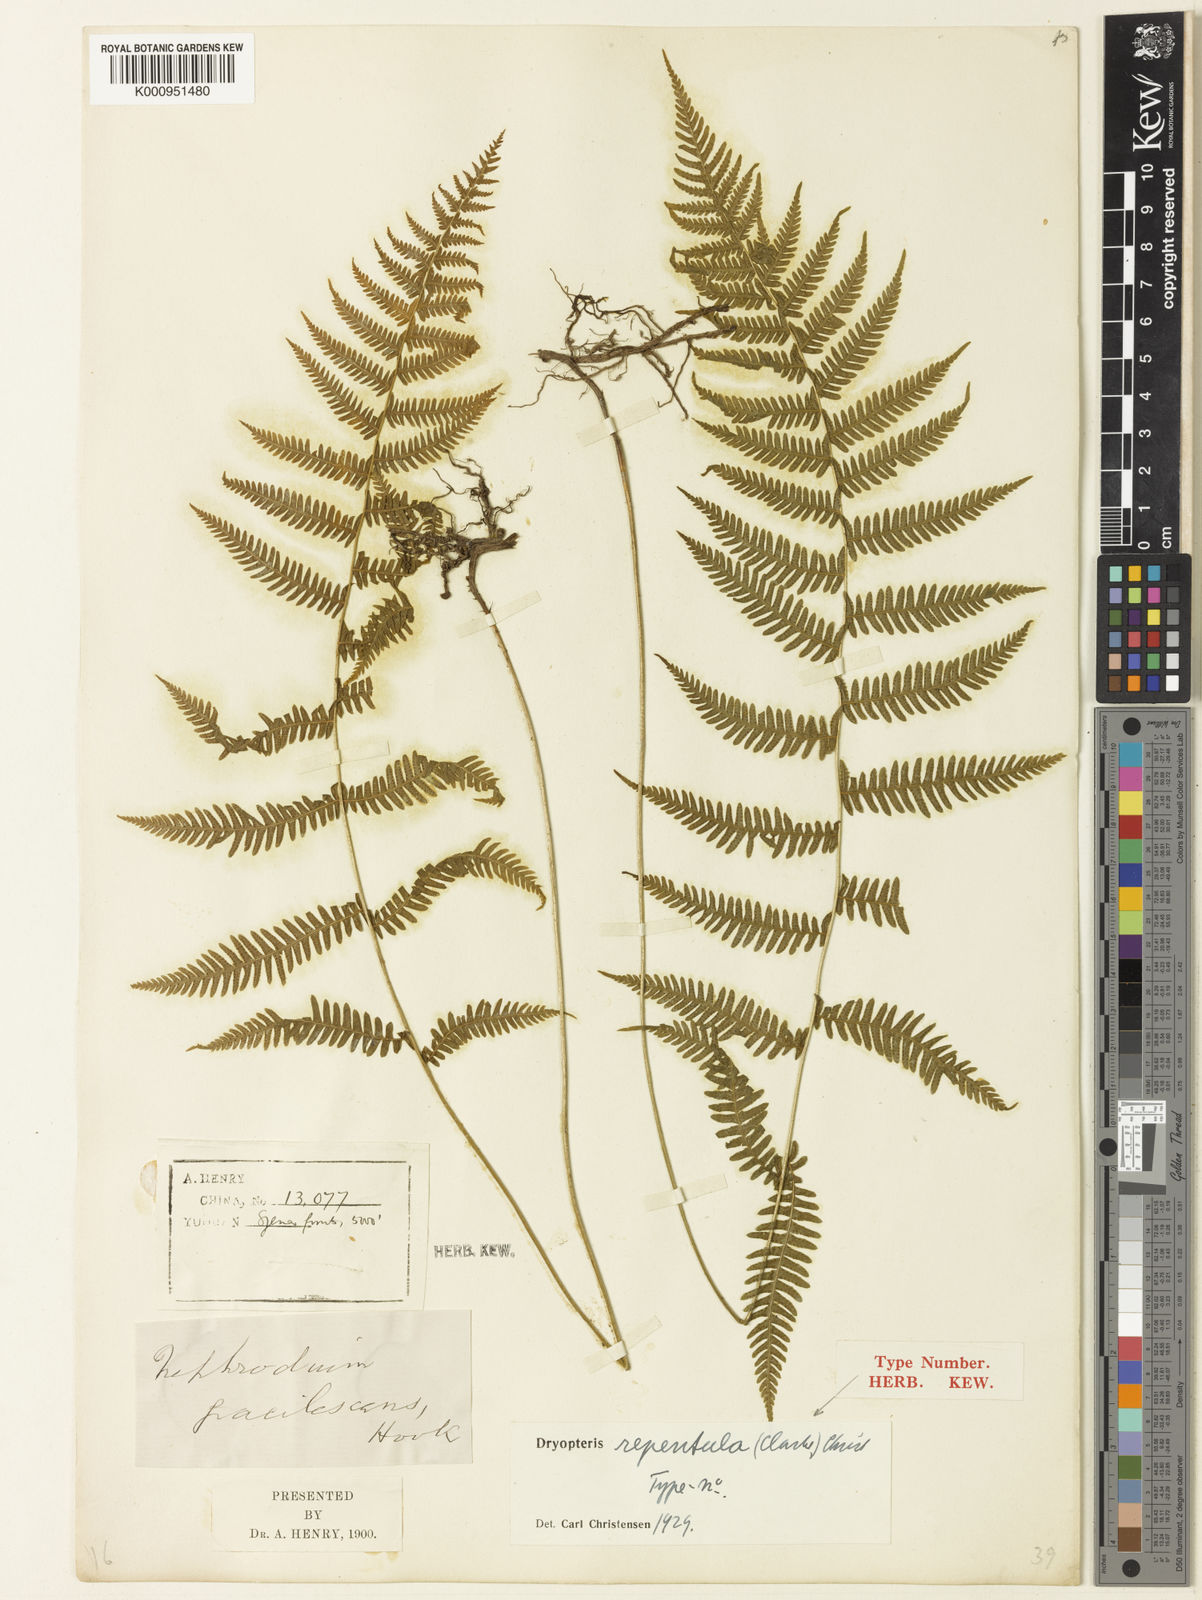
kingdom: Plantae
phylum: Tracheophyta
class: Polypodiopsida
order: Polypodiales
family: Thelypteridaceae
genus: Amauropelta
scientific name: Amauropelta glanduligera
